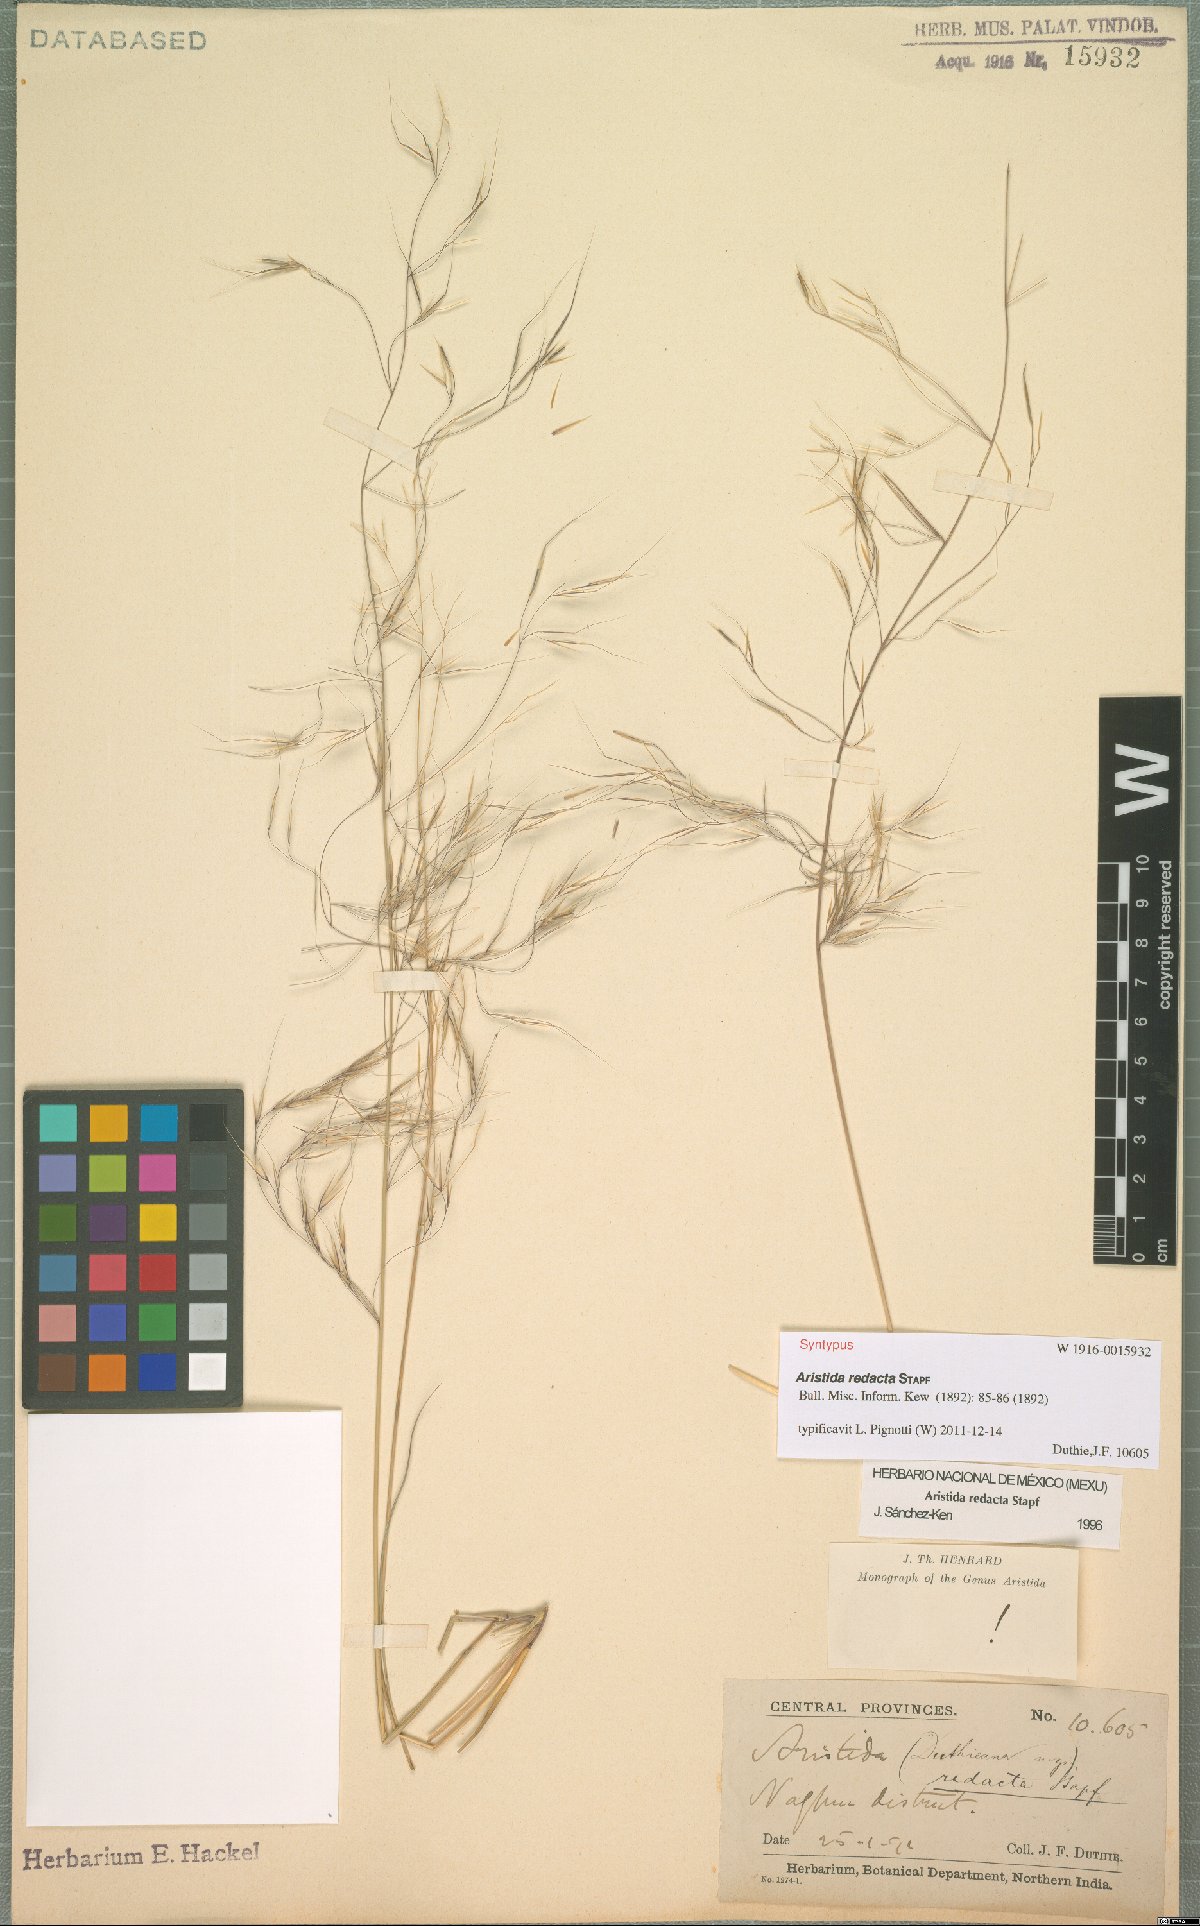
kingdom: Plantae
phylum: Tracheophyta
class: Liliopsida
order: Poales
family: Poaceae
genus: Aristida
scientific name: Aristida redacta
